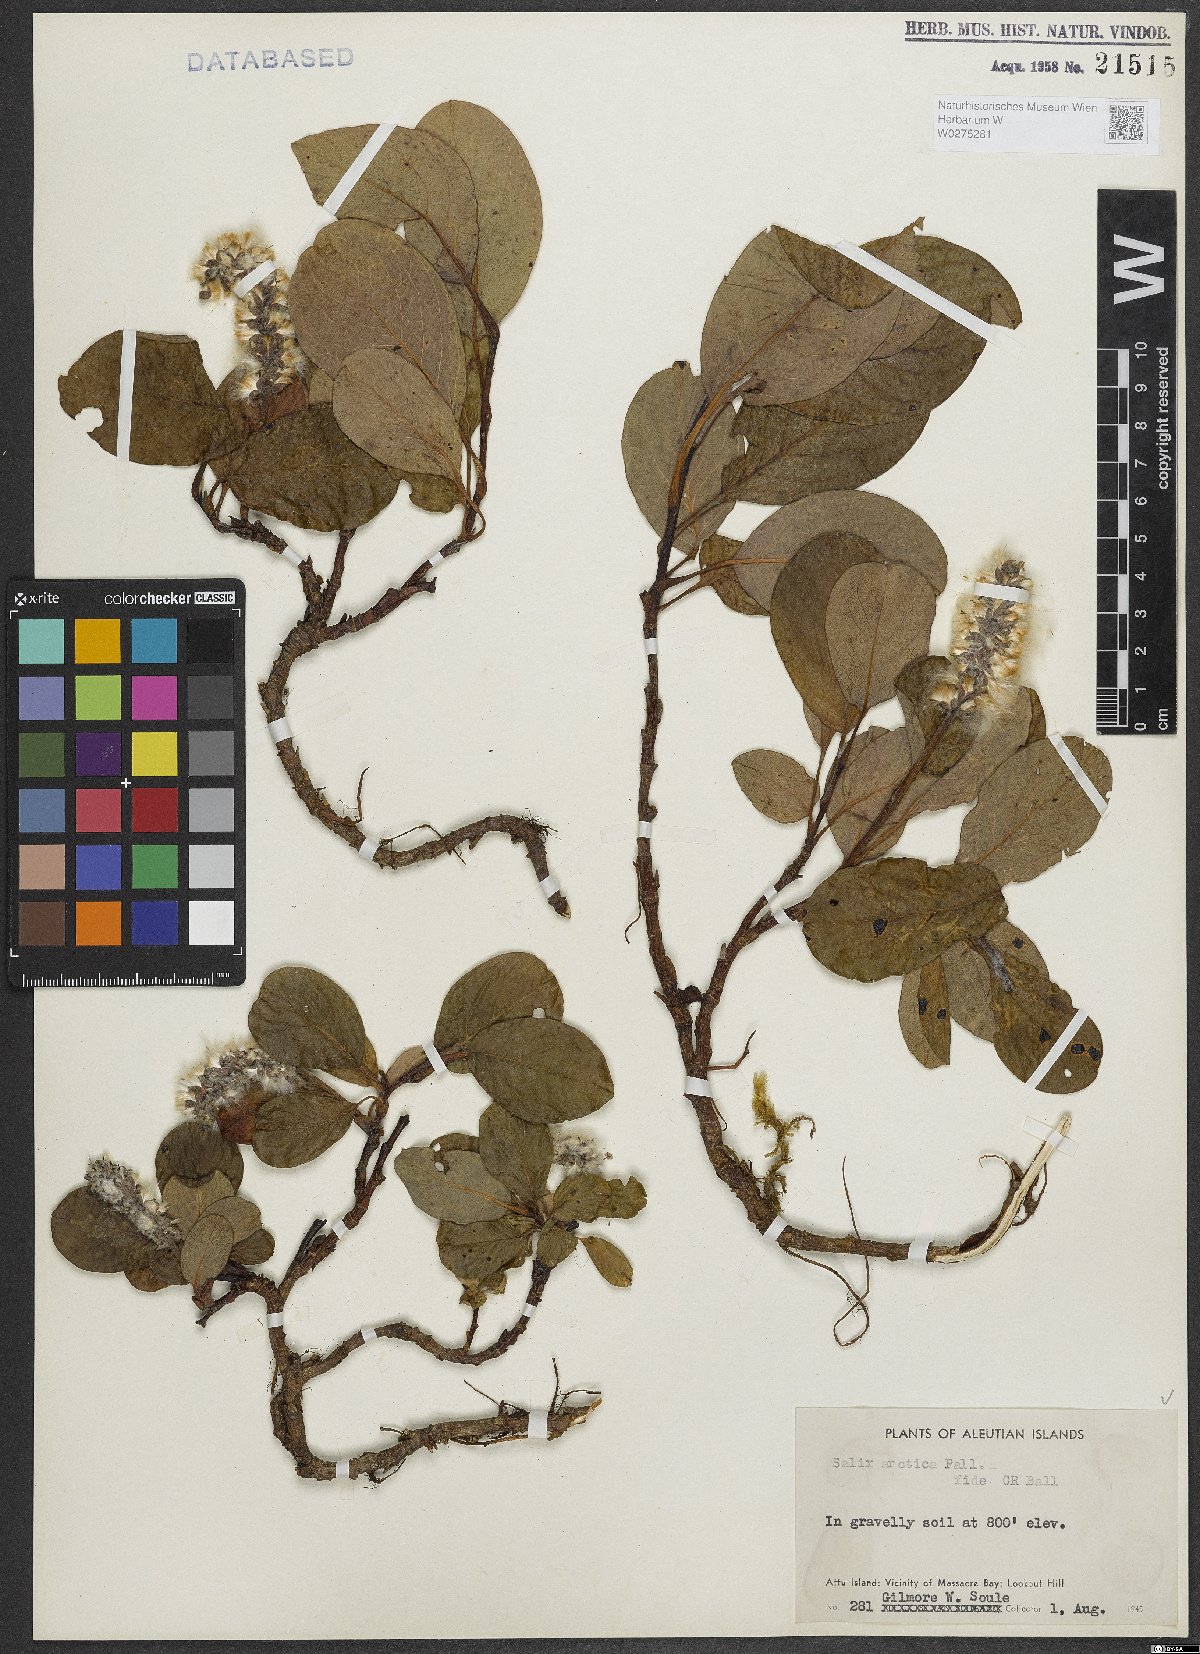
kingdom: Plantae
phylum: Tracheophyta
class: Magnoliopsida
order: Malpighiales
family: Salicaceae
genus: Salix
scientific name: Salix arctica
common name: Arctic willow
